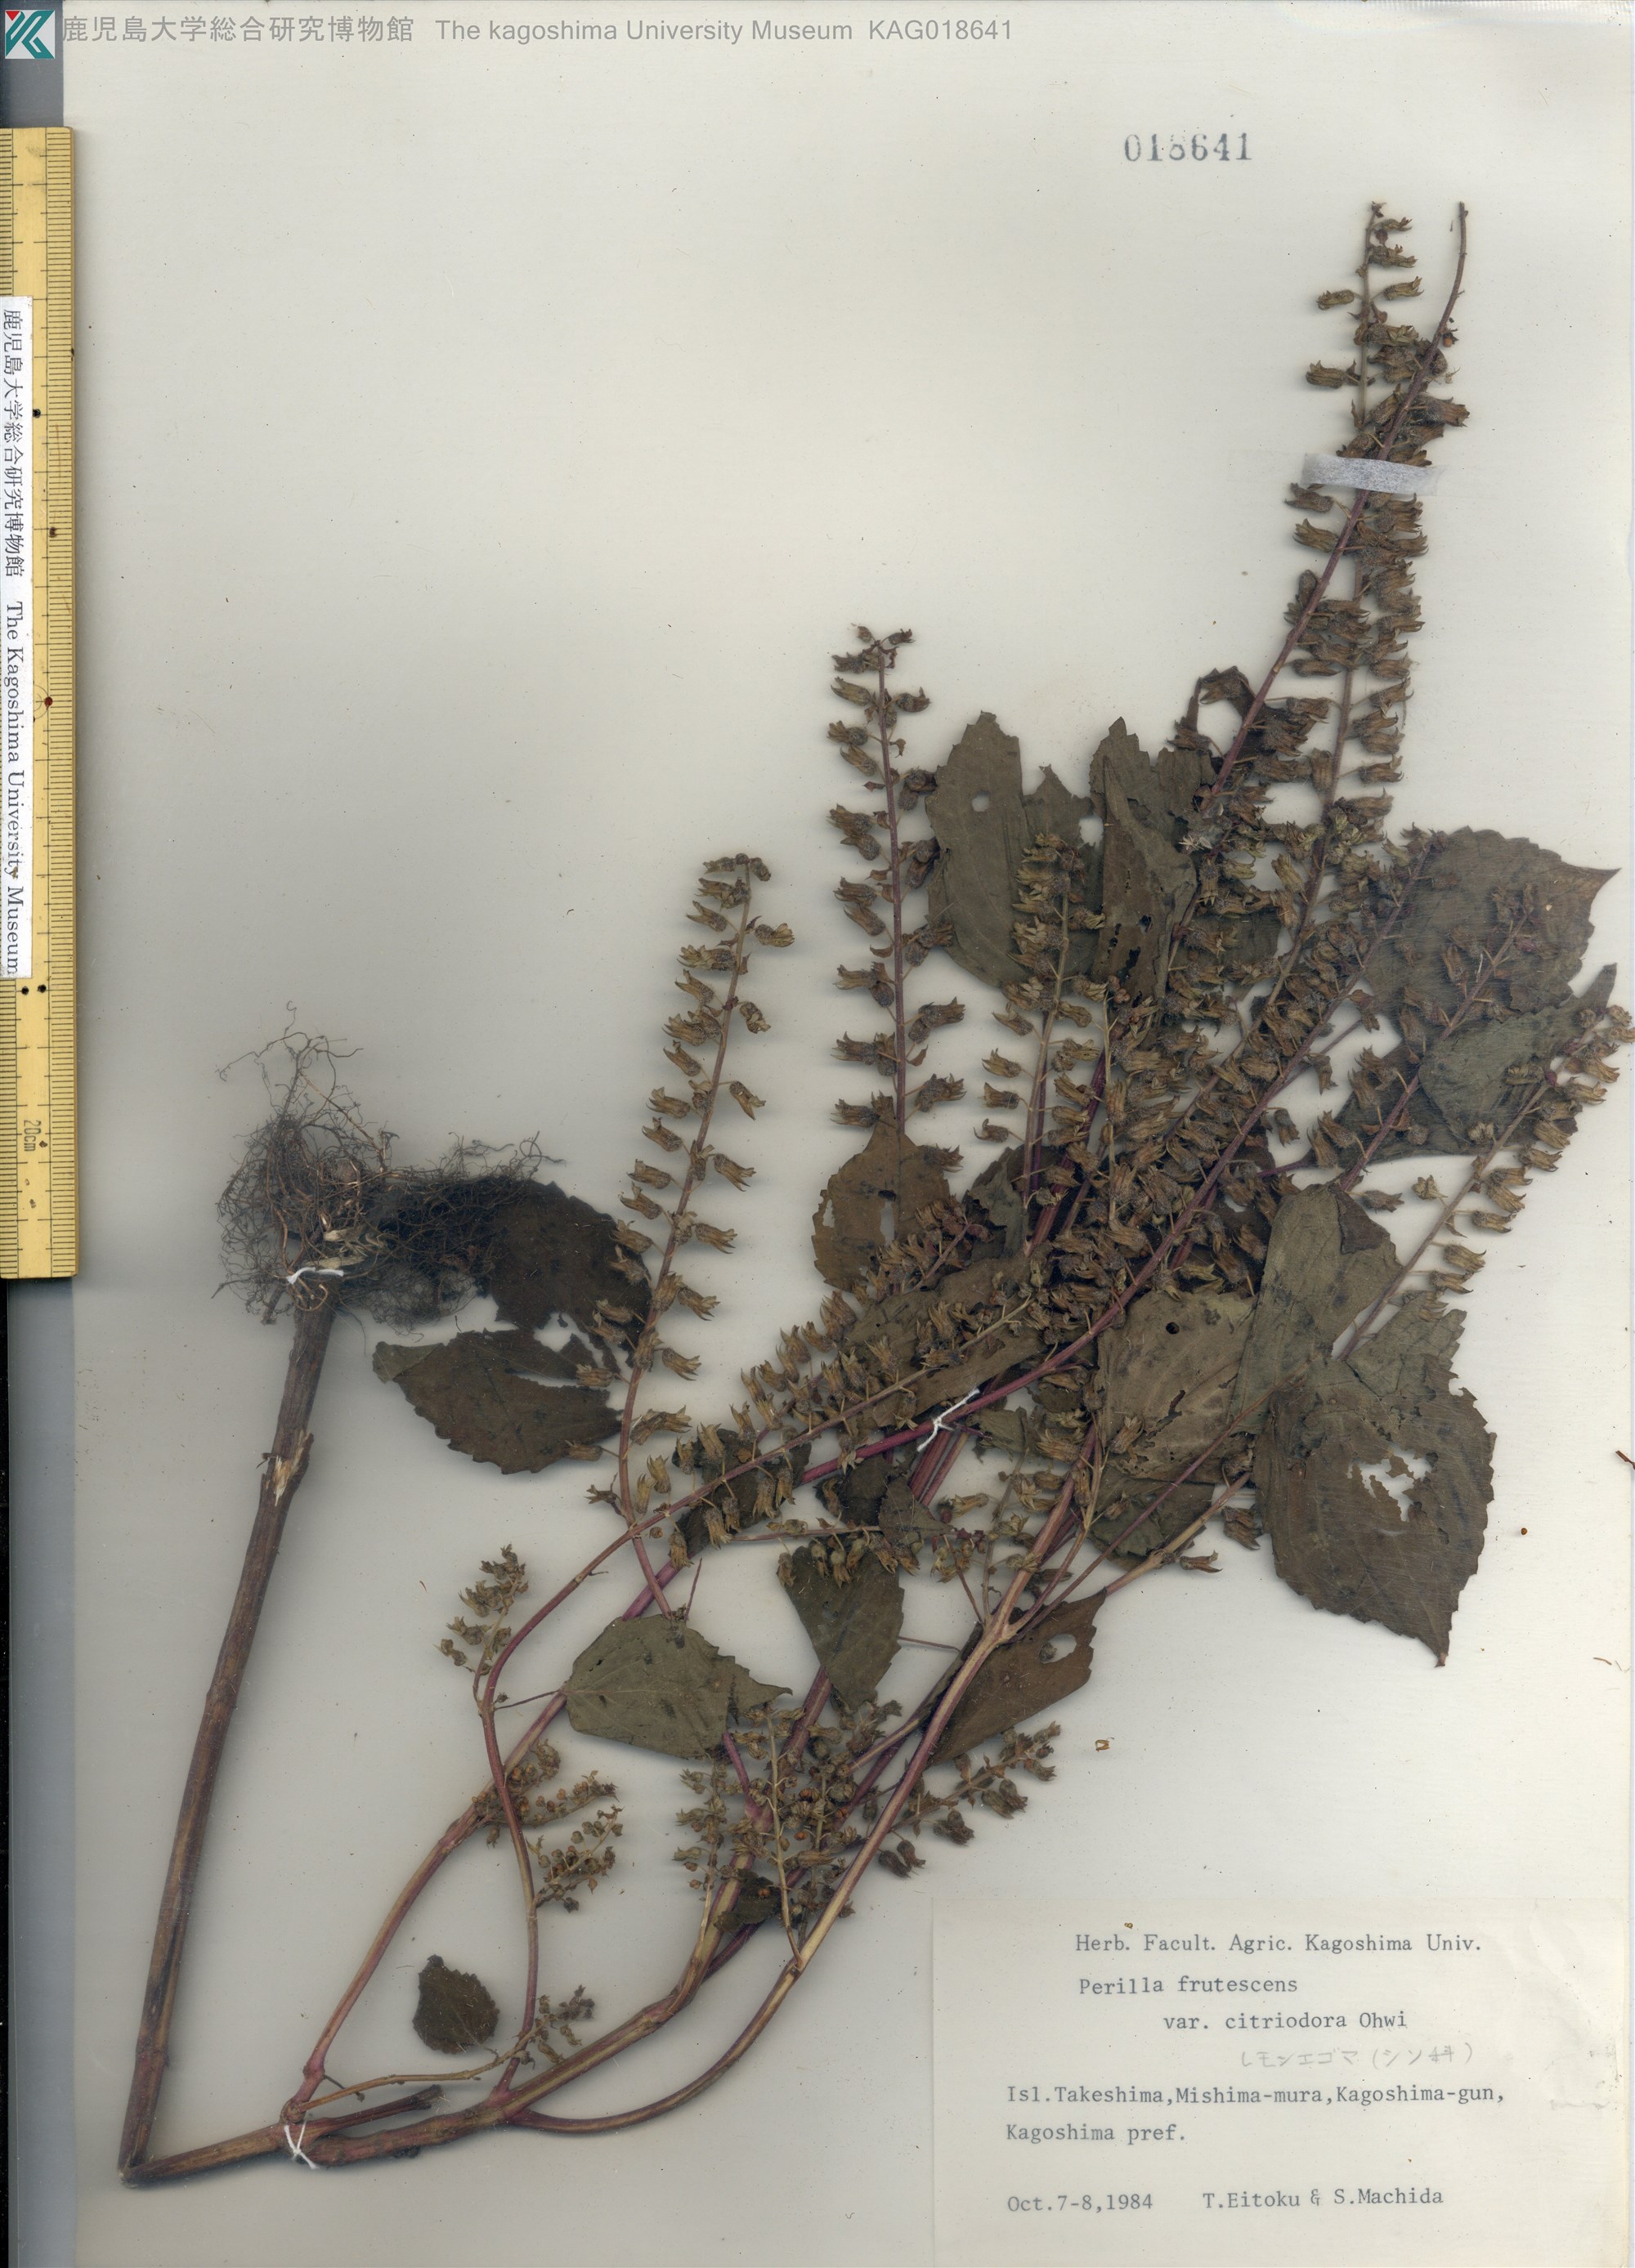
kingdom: Plantae
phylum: Tracheophyta
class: Magnoliopsida
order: Lamiales
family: Lamiaceae
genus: Perilla
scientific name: Perilla frutescens
